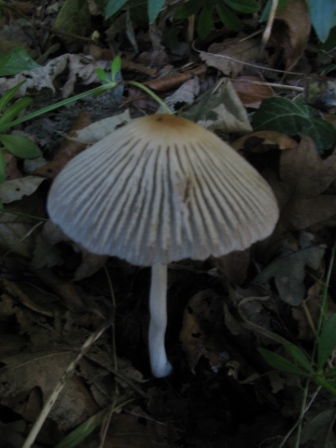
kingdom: Fungi
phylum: Basidiomycota
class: Agaricomycetes
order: Agaricales
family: Psathyrellaceae
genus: Tulosesus
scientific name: Tulosesus impatiens
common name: furet blækhat
